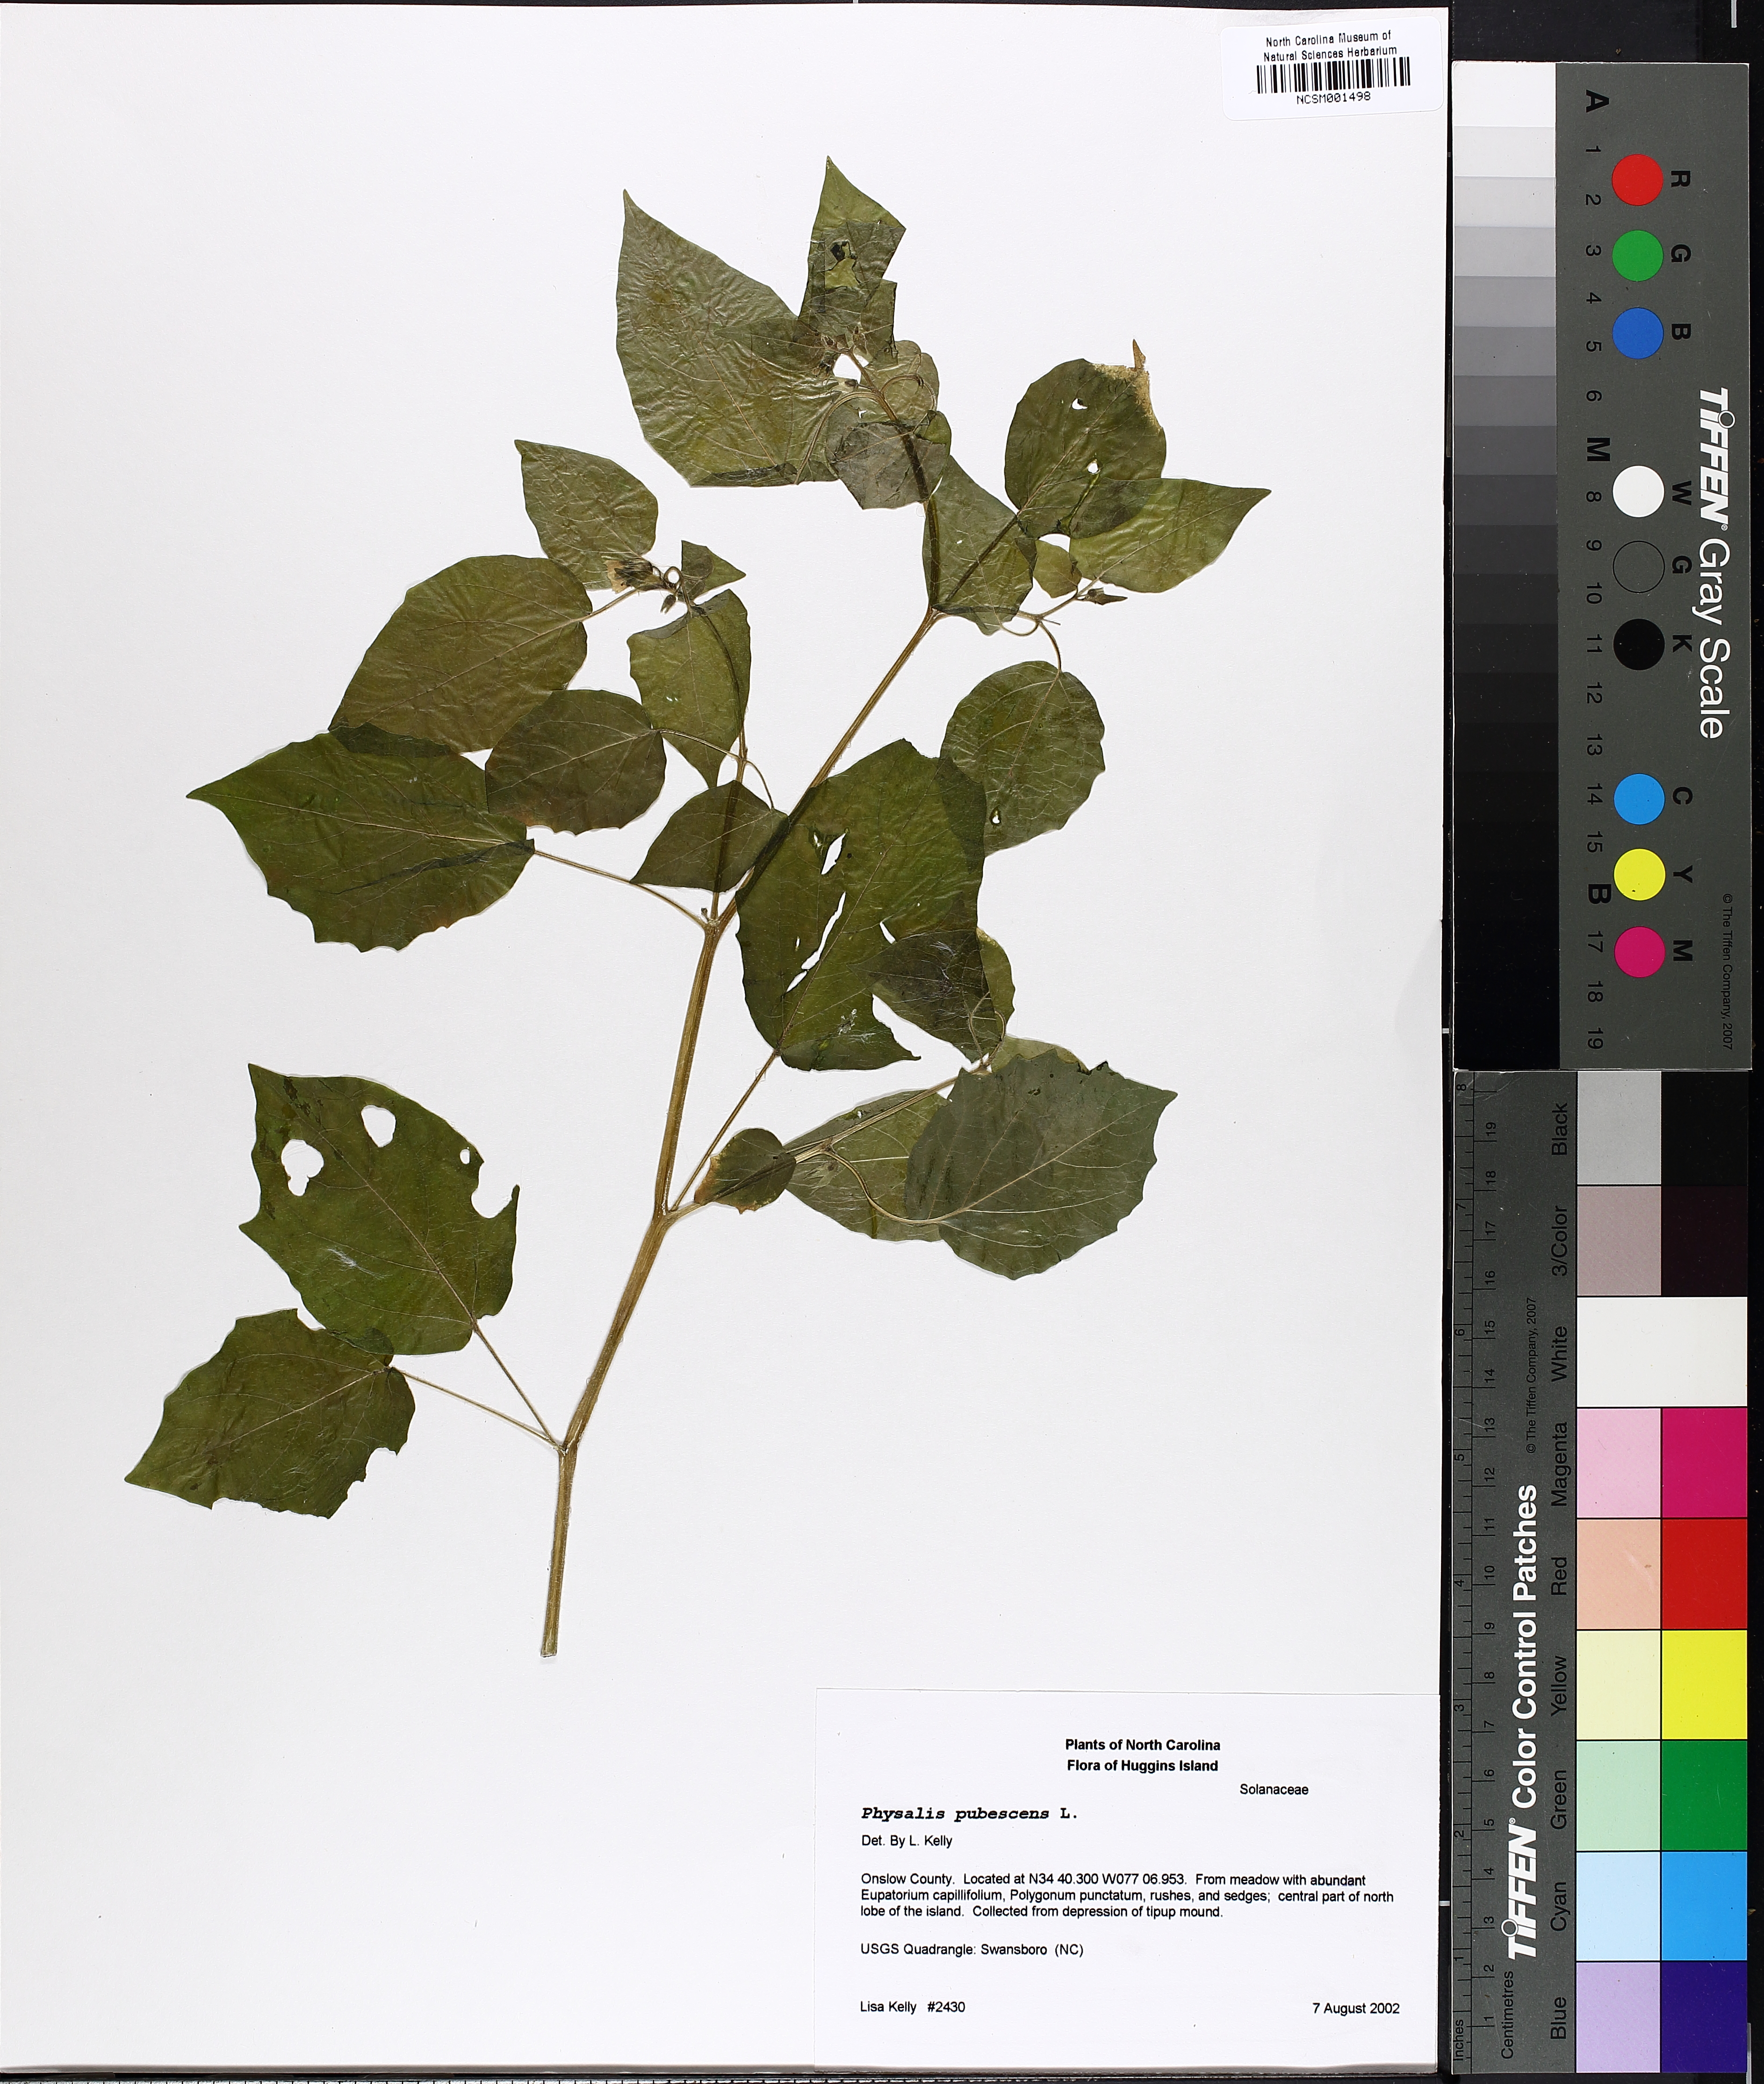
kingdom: Plantae
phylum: Tracheophyta
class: Magnoliopsida
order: Solanales
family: Solanaceae
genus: Physalis
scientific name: Physalis pubescens
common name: Downy ground-cherry
